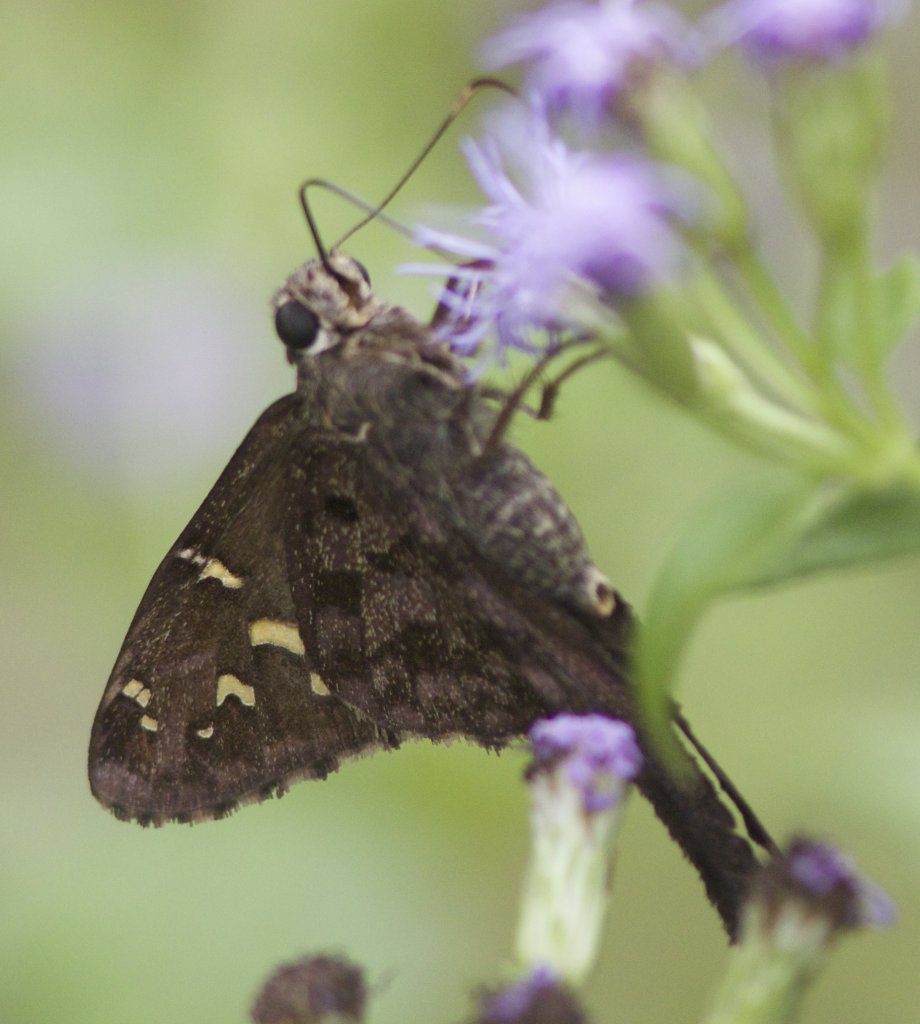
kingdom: Animalia
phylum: Arthropoda
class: Insecta
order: Lepidoptera
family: Hesperiidae
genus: Urbanus
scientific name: Urbanus dorantes
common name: Dorantes Longtail
